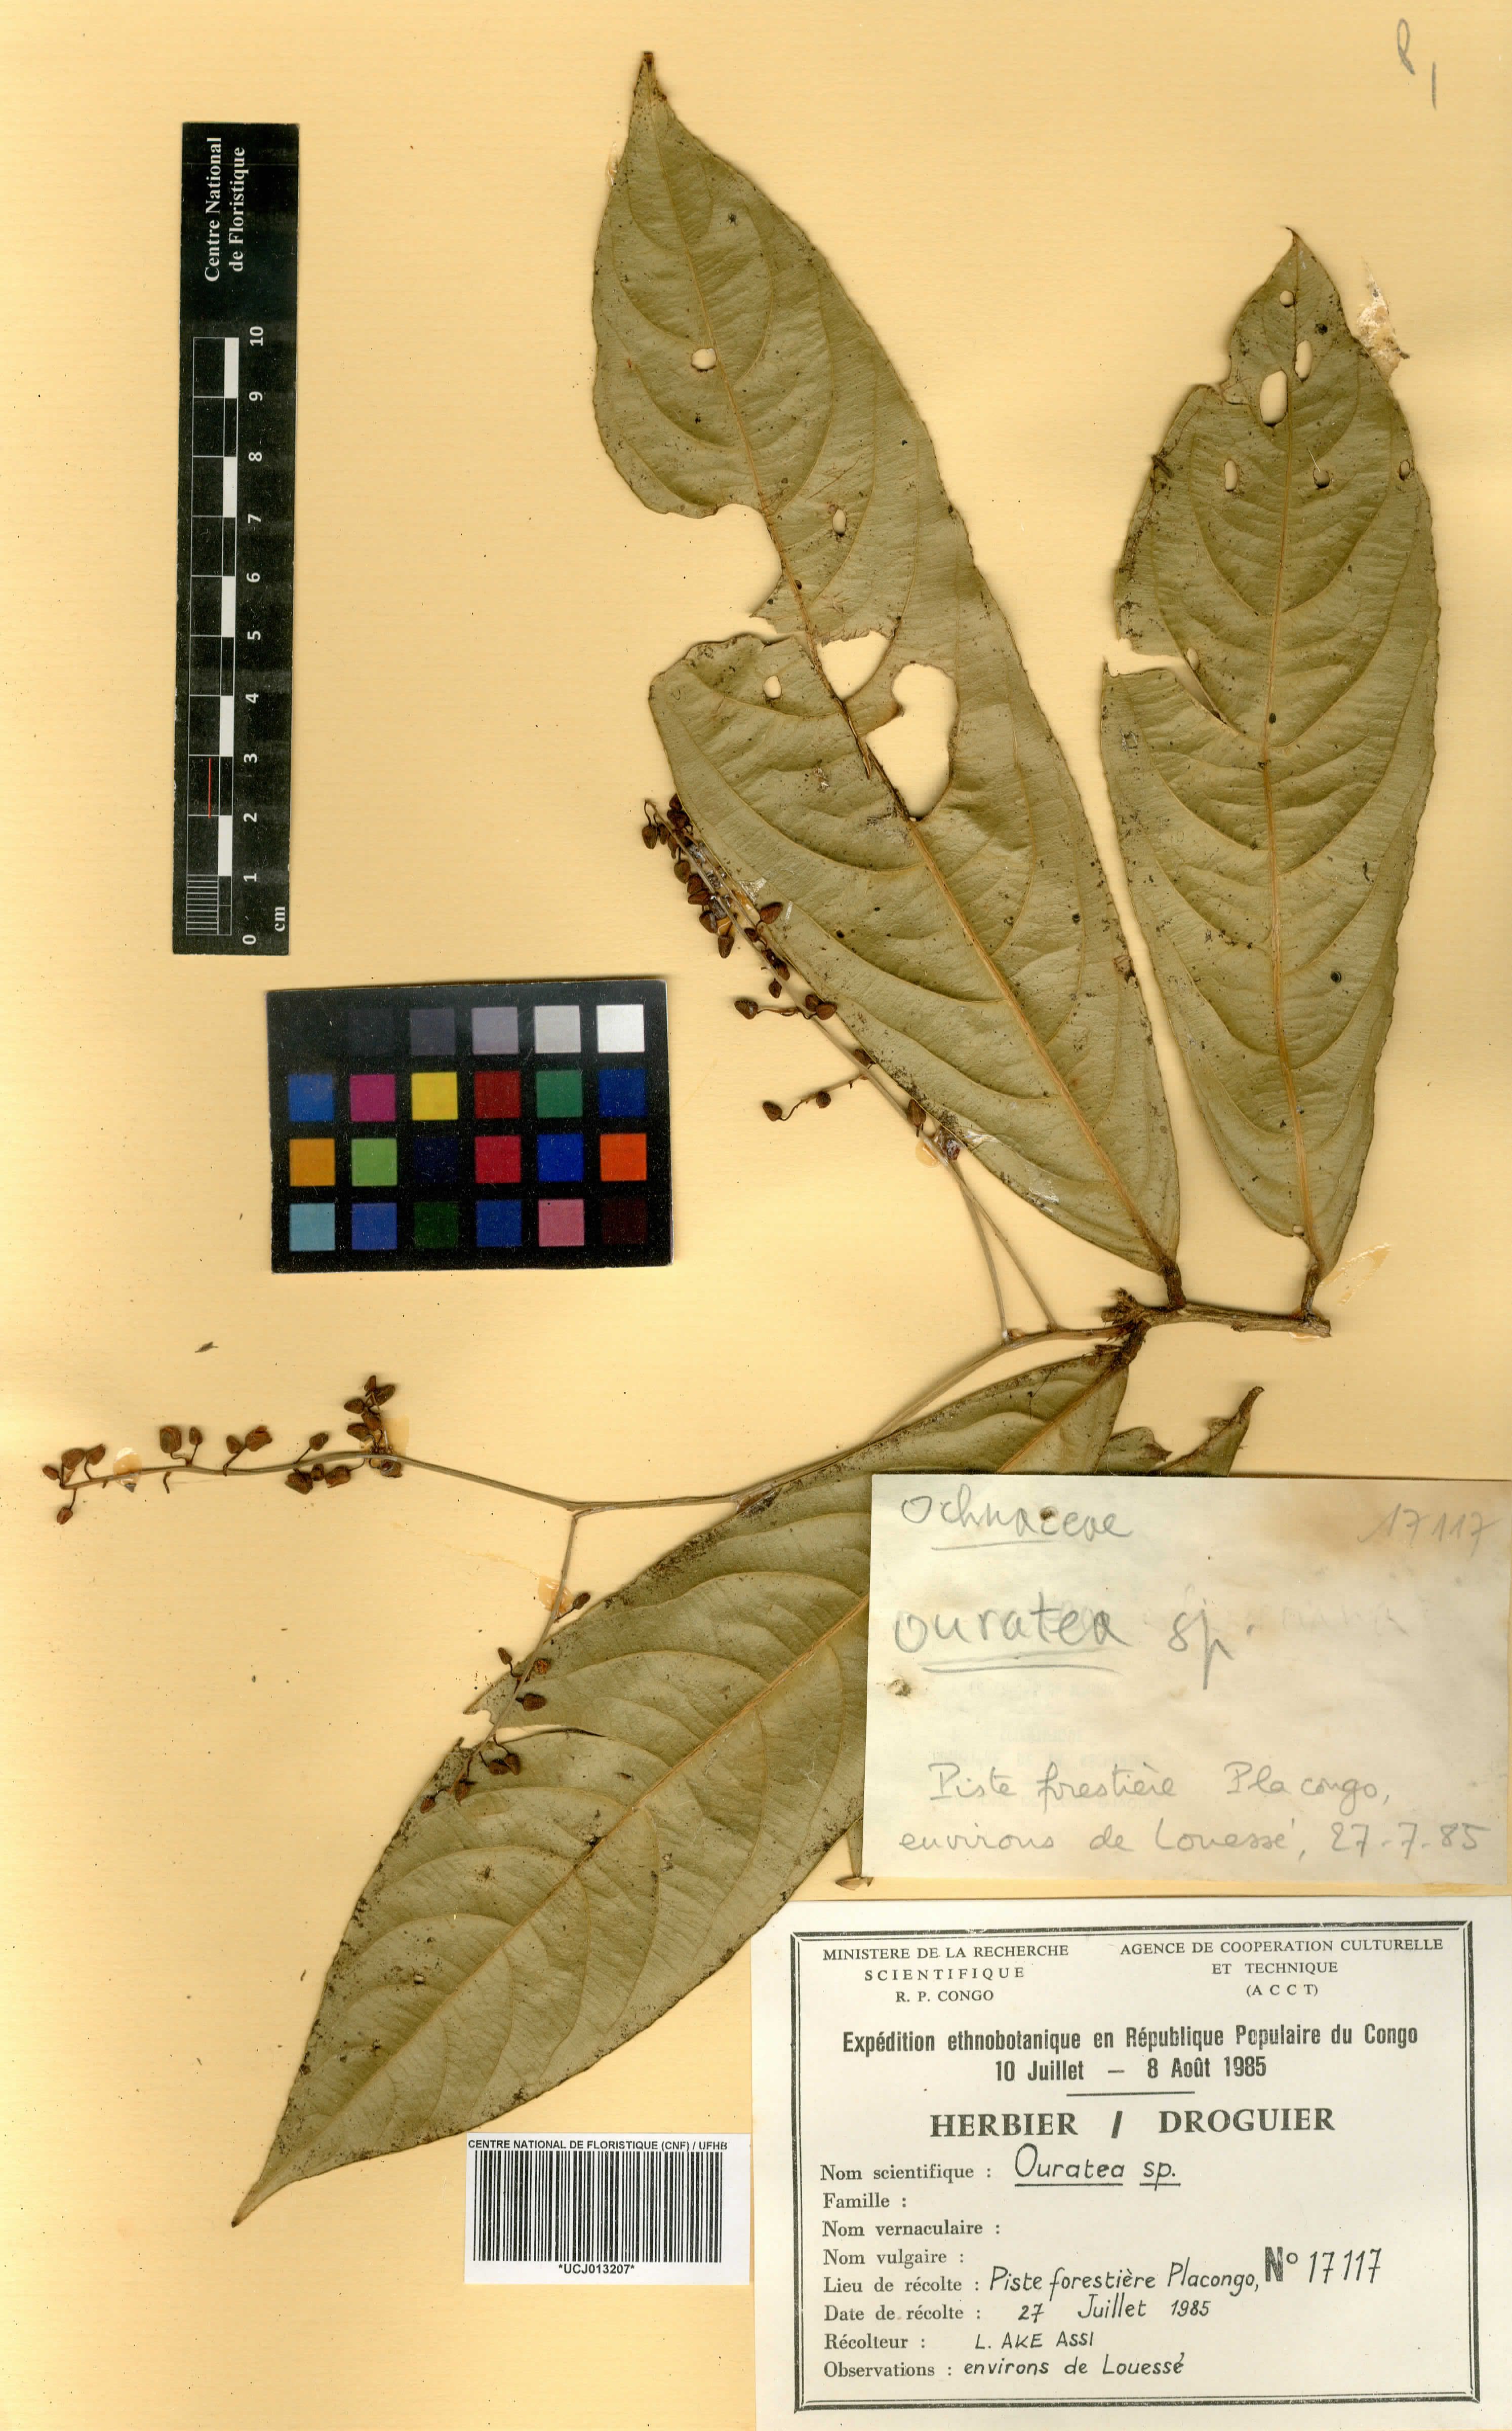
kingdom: Plantae
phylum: Tracheophyta
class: Magnoliopsida
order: Malpighiales
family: Ochnaceae
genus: Ouratea
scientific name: Ouratea
